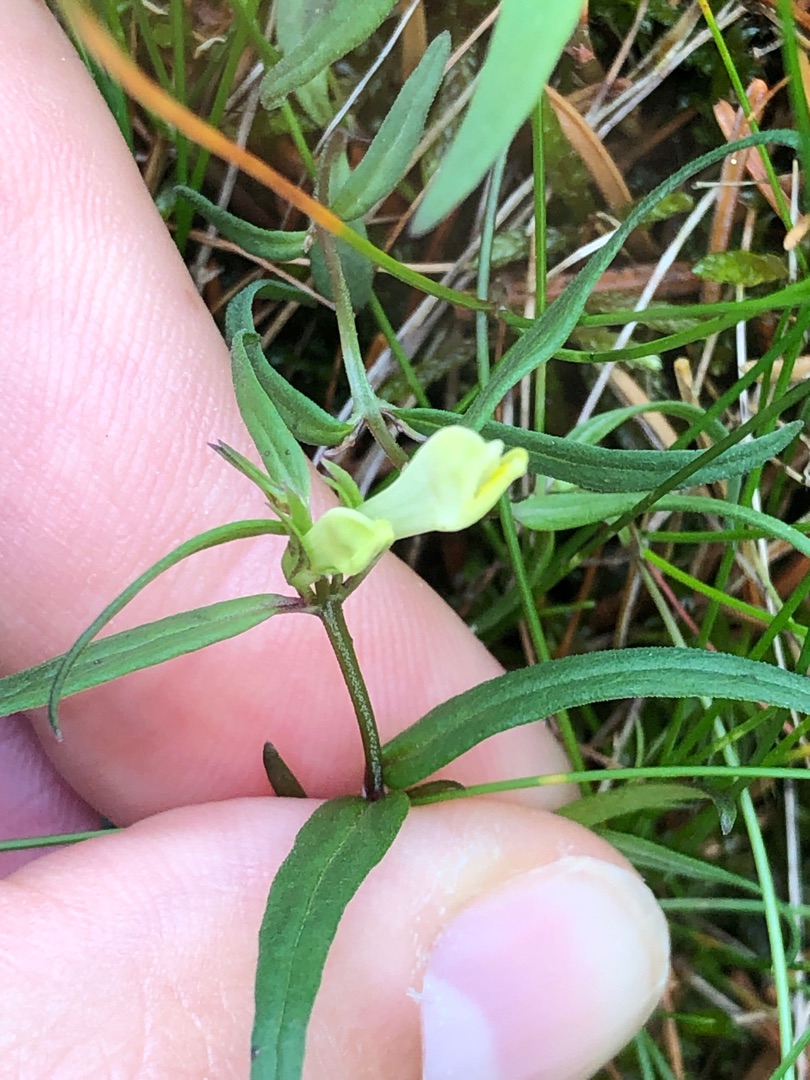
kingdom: Plantae
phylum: Tracheophyta
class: Magnoliopsida
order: Lamiales
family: Orobanchaceae
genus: Melampyrum
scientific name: Melampyrum pratense
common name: Almindelig kohvede
